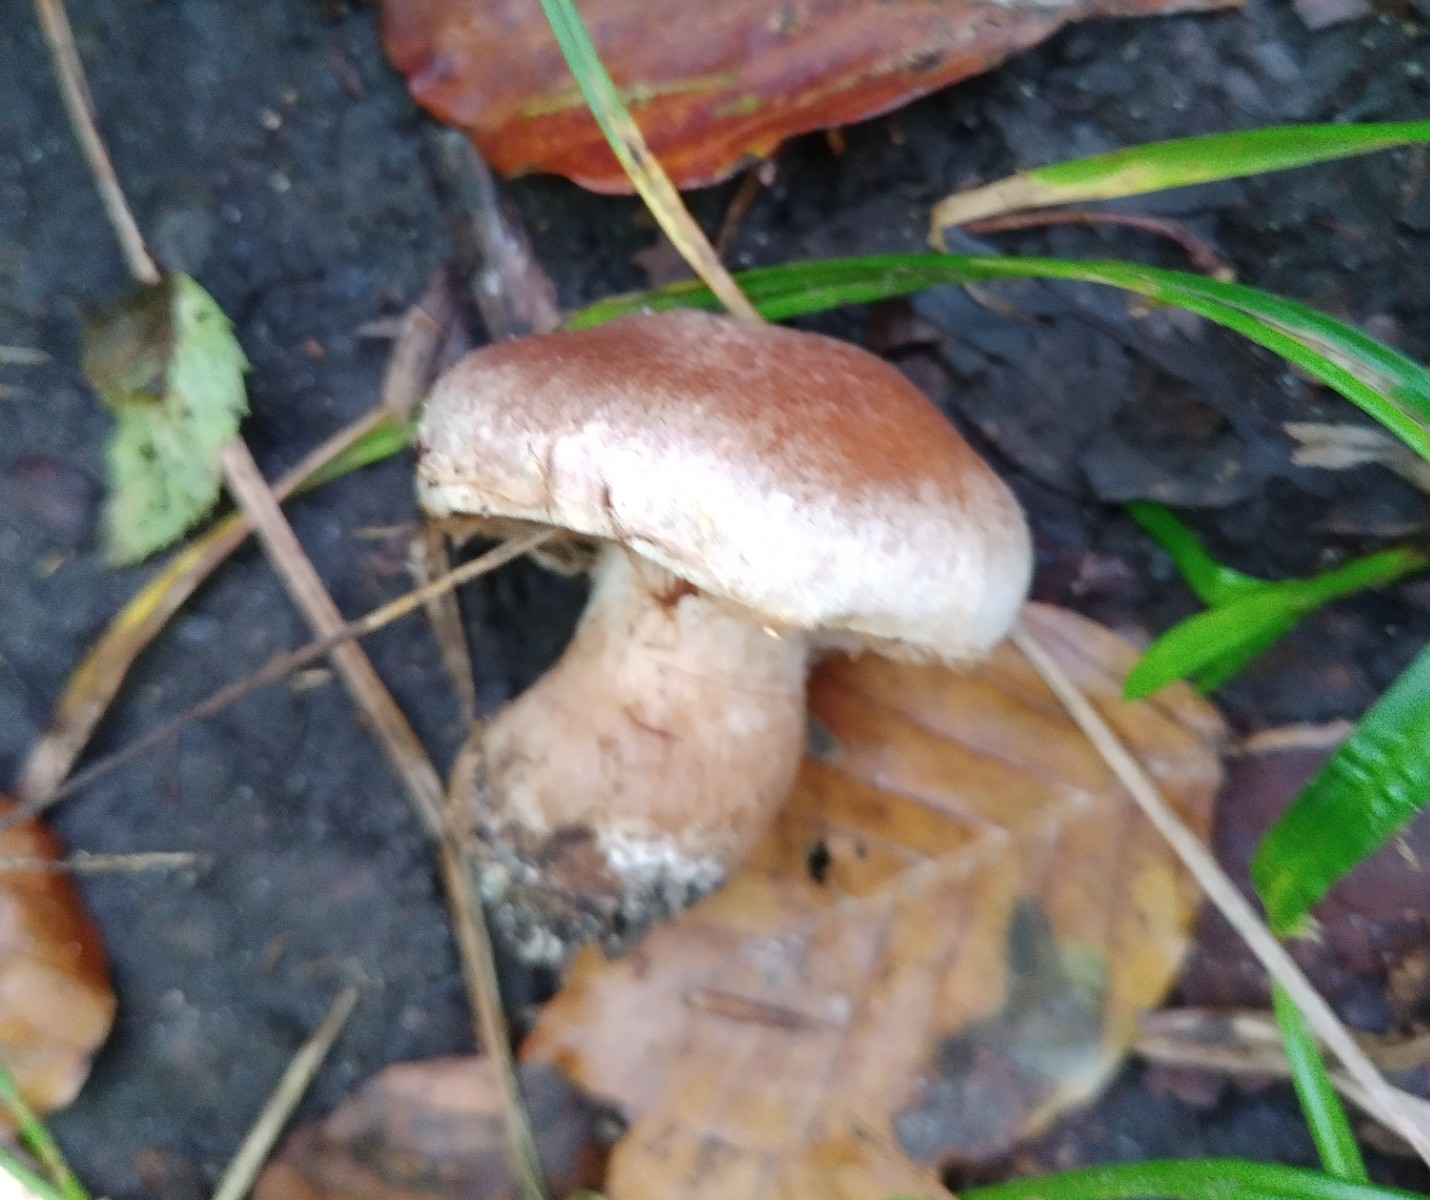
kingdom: Fungi
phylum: Basidiomycota
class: Agaricomycetes
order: Agaricales
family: Cortinariaceae
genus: Cortinarius
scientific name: Cortinarius
